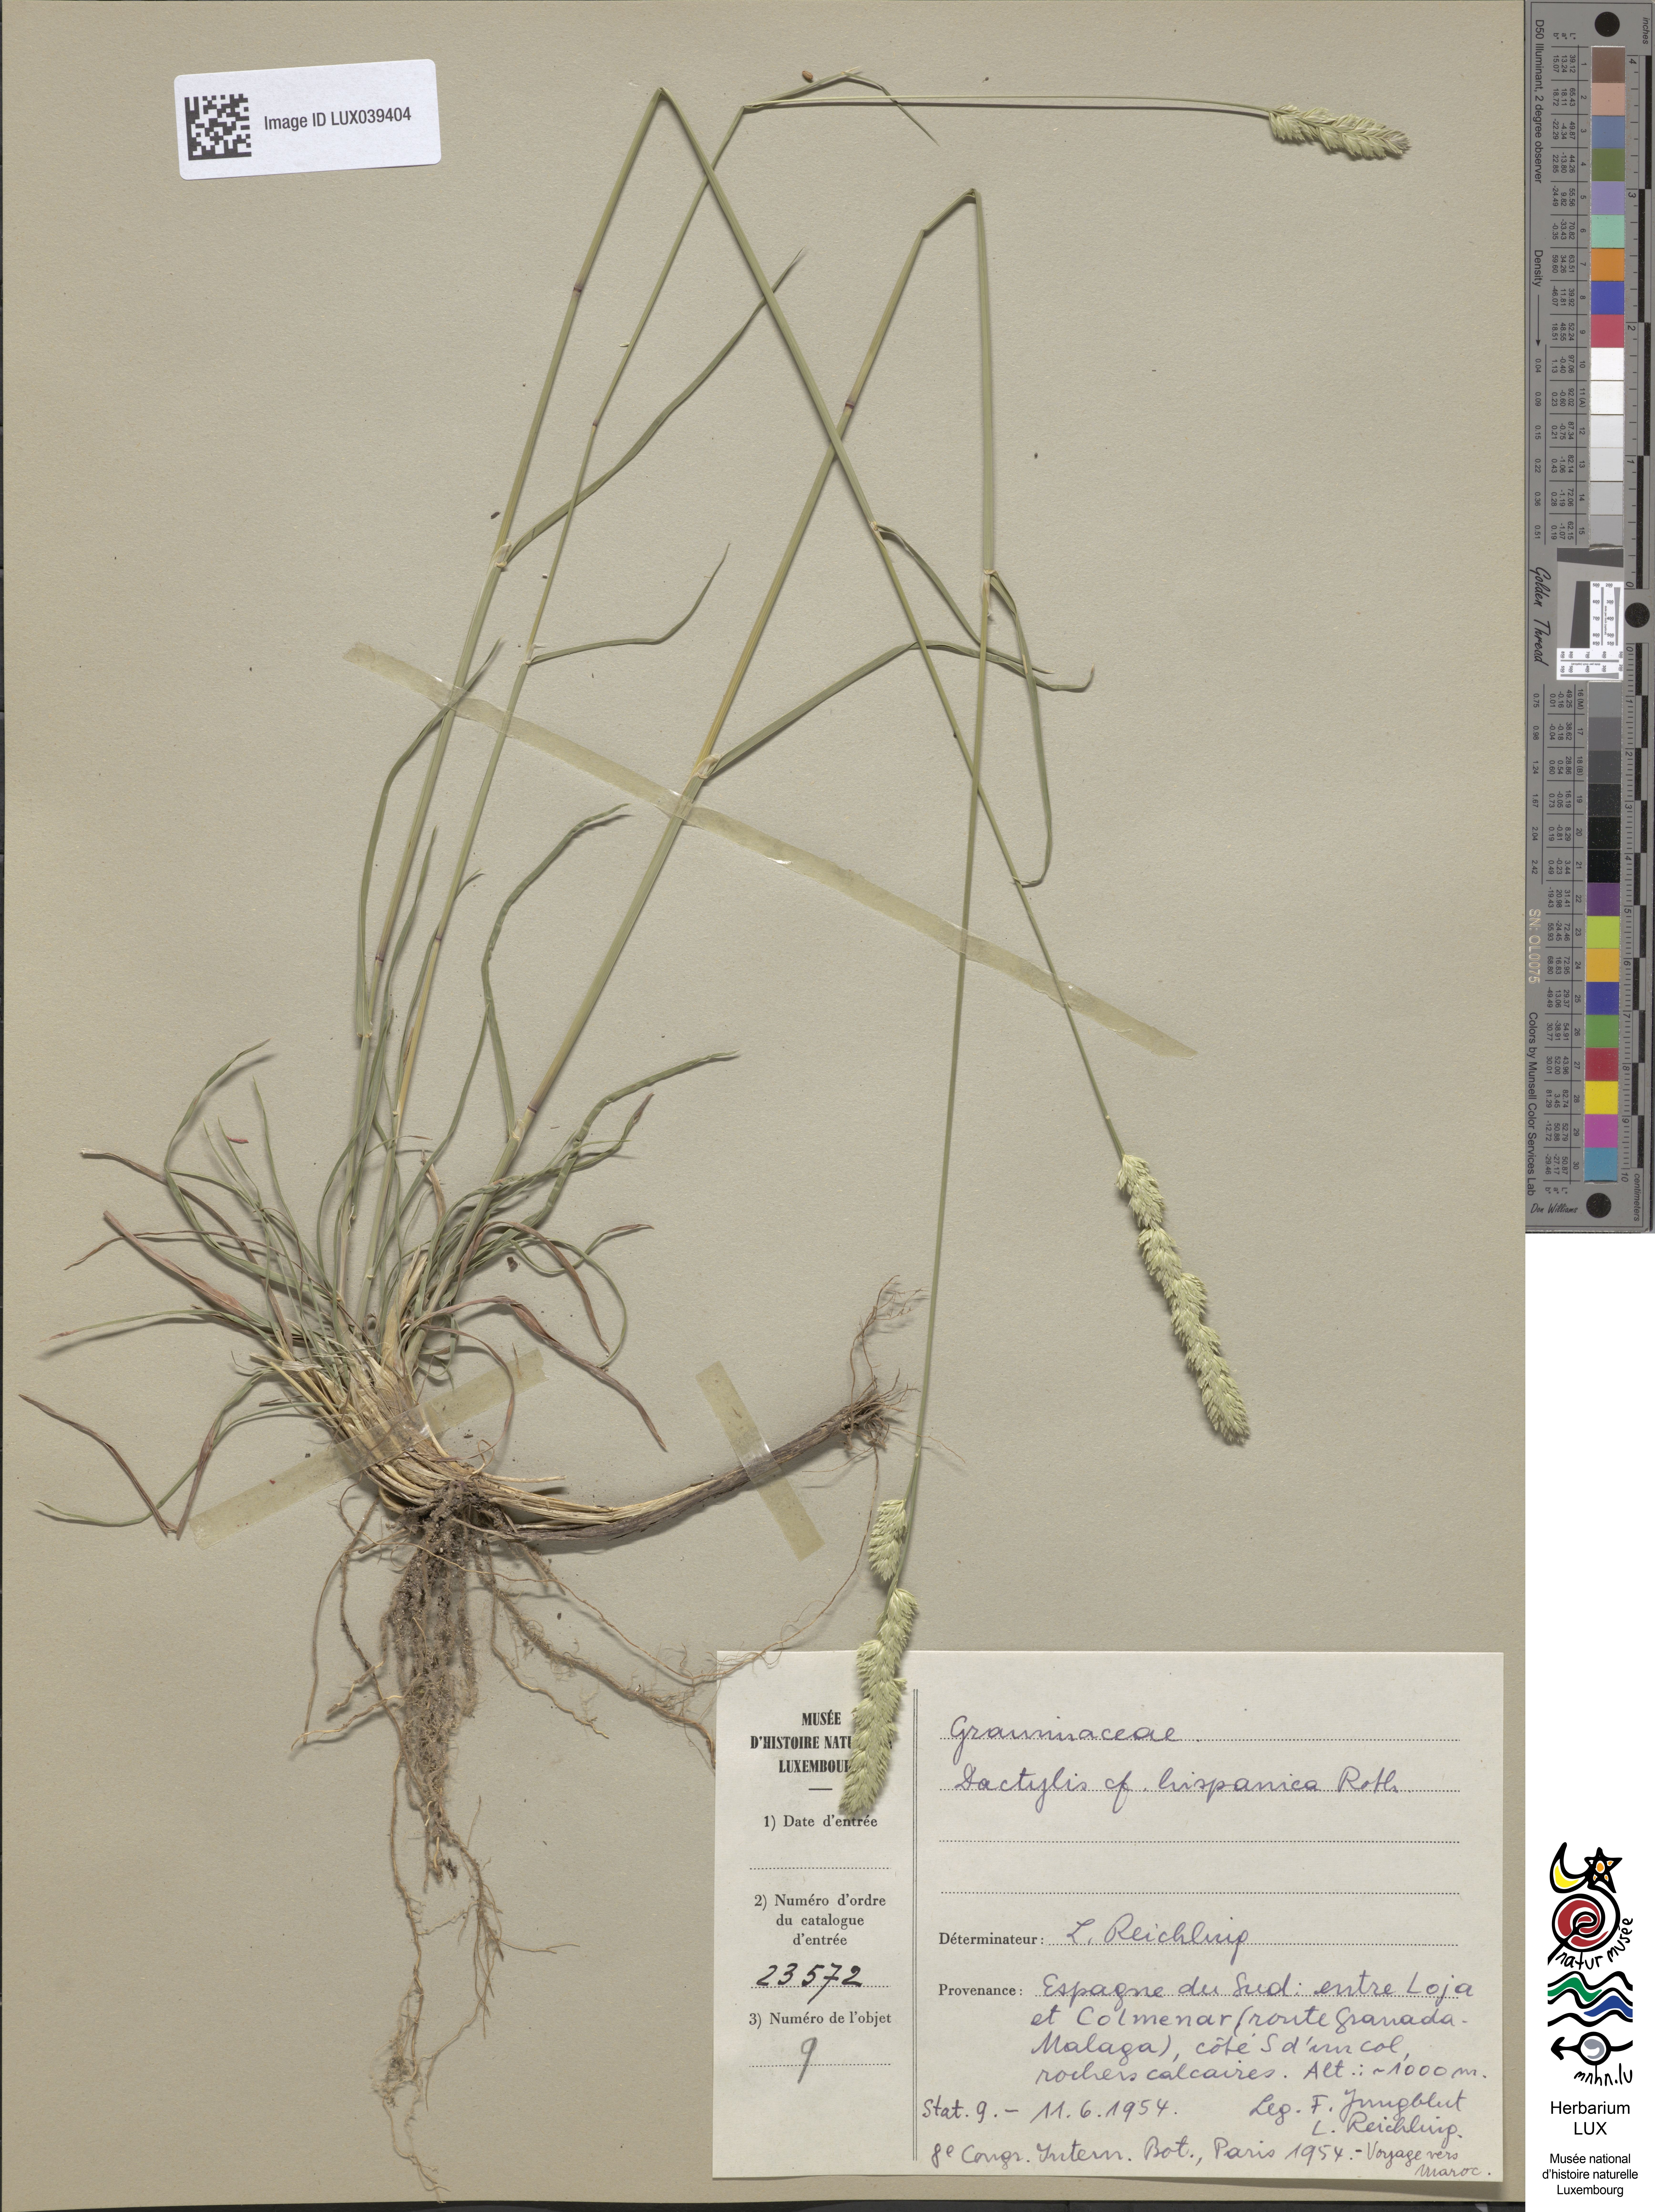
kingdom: Plantae
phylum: Tracheophyta
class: Liliopsida
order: Poales
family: Poaceae
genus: Dactylis
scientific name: Dactylis glomerata
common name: Orchardgrass
